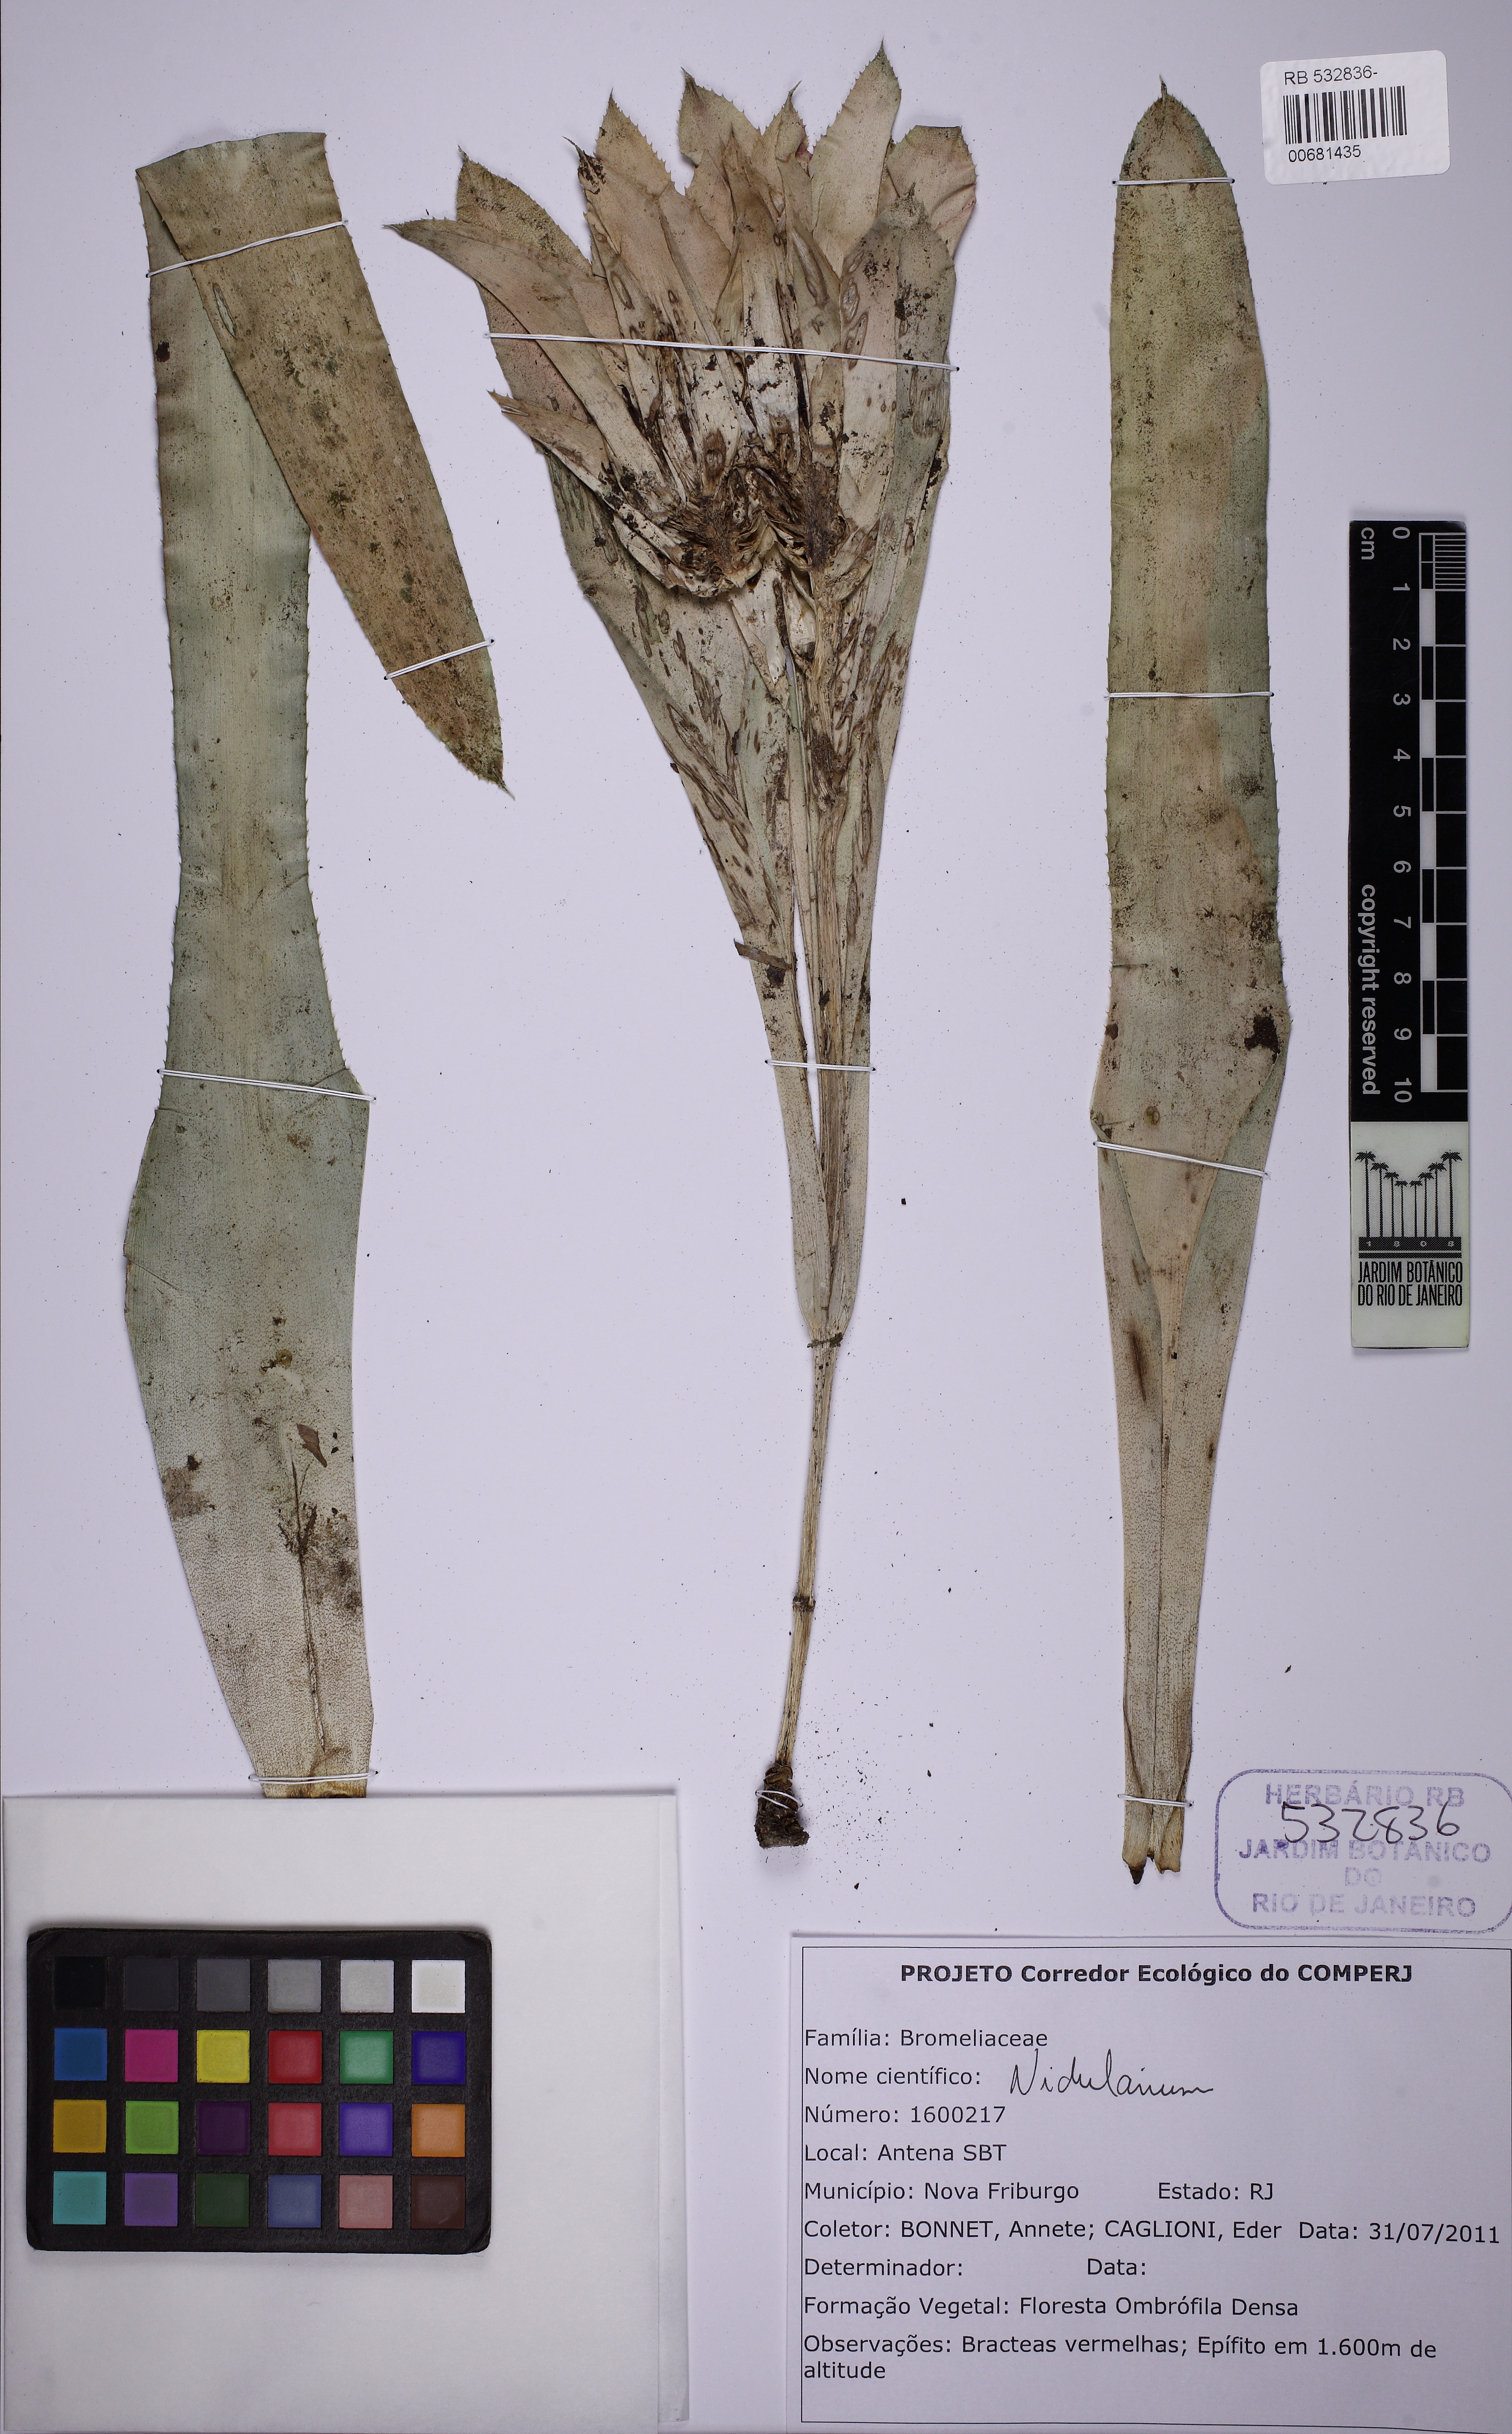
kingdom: Plantae
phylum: Tracheophyta
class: Liliopsida
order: Poales
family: Bromeliaceae
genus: Nidularium
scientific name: Nidularium
